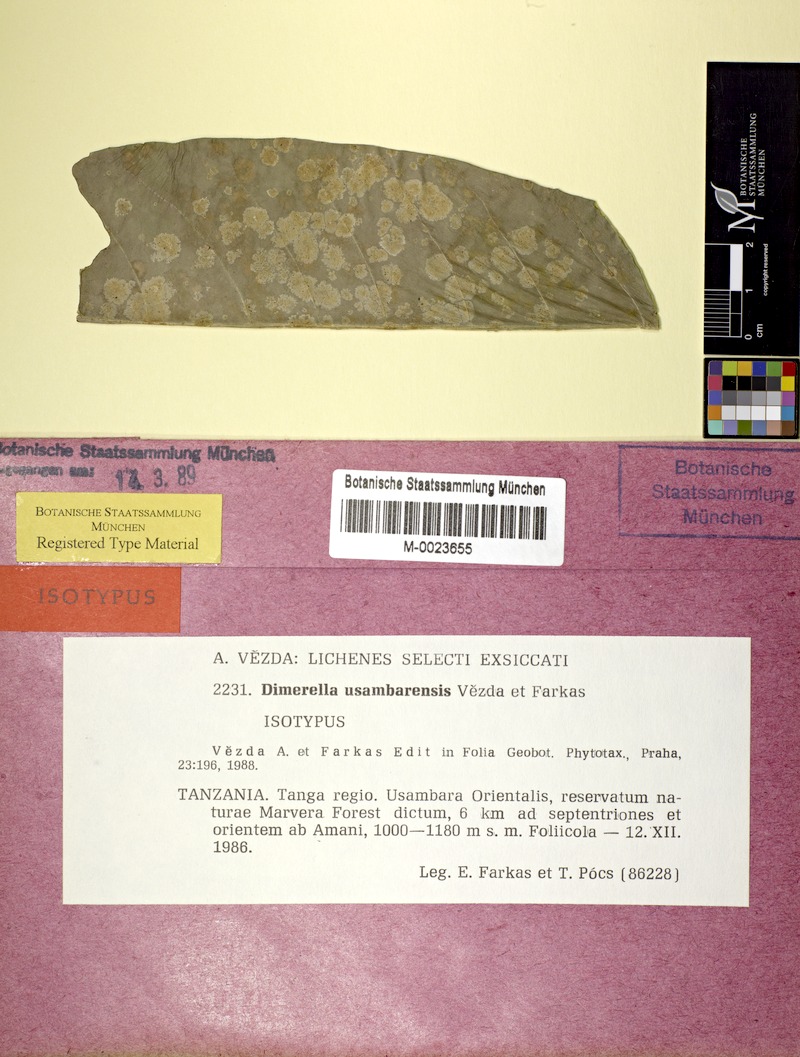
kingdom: Fungi
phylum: Ascomycota
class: Lecanoromycetes
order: Ostropales
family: Coenogoniaceae
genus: Coenogonium
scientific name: Coenogonium usambarense
